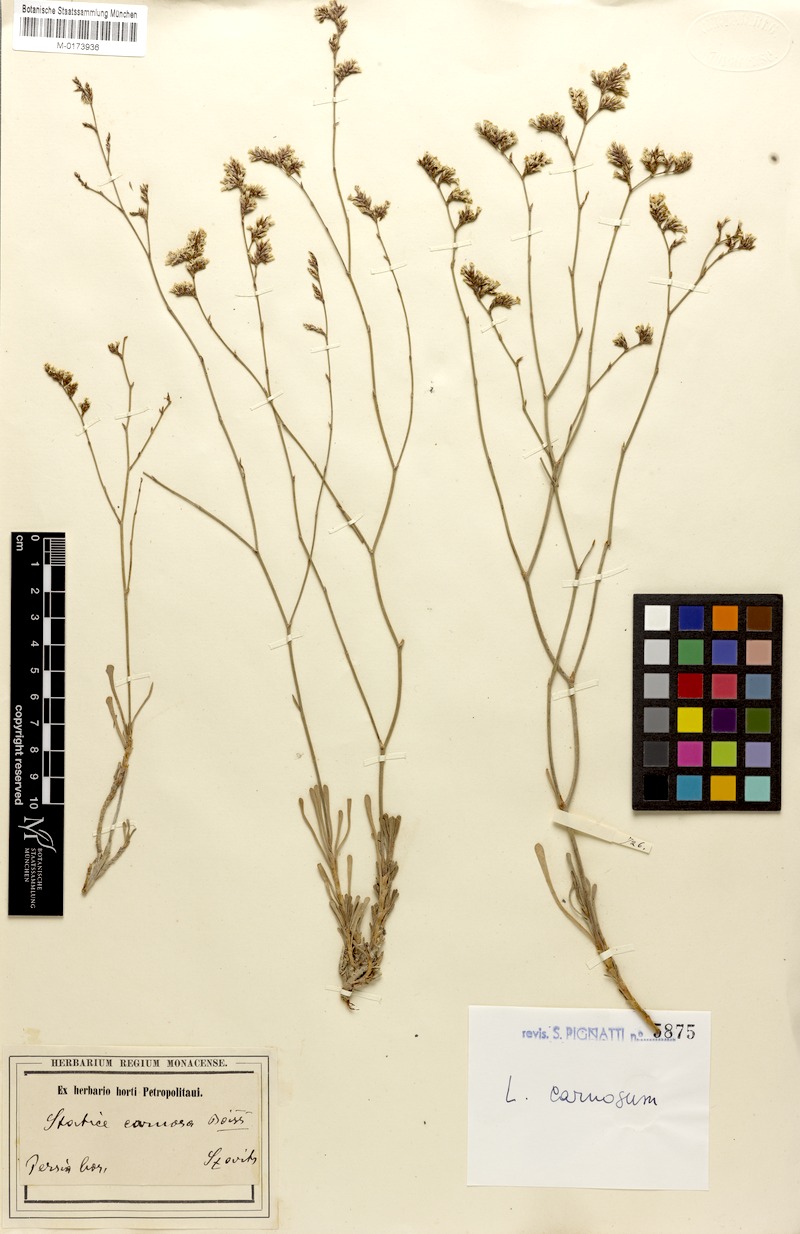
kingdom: Plantae
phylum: Tracheophyta
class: Magnoliopsida
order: Caryophyllales
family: Plumbaginaceae
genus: Limonium
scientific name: Limonium carnosum
